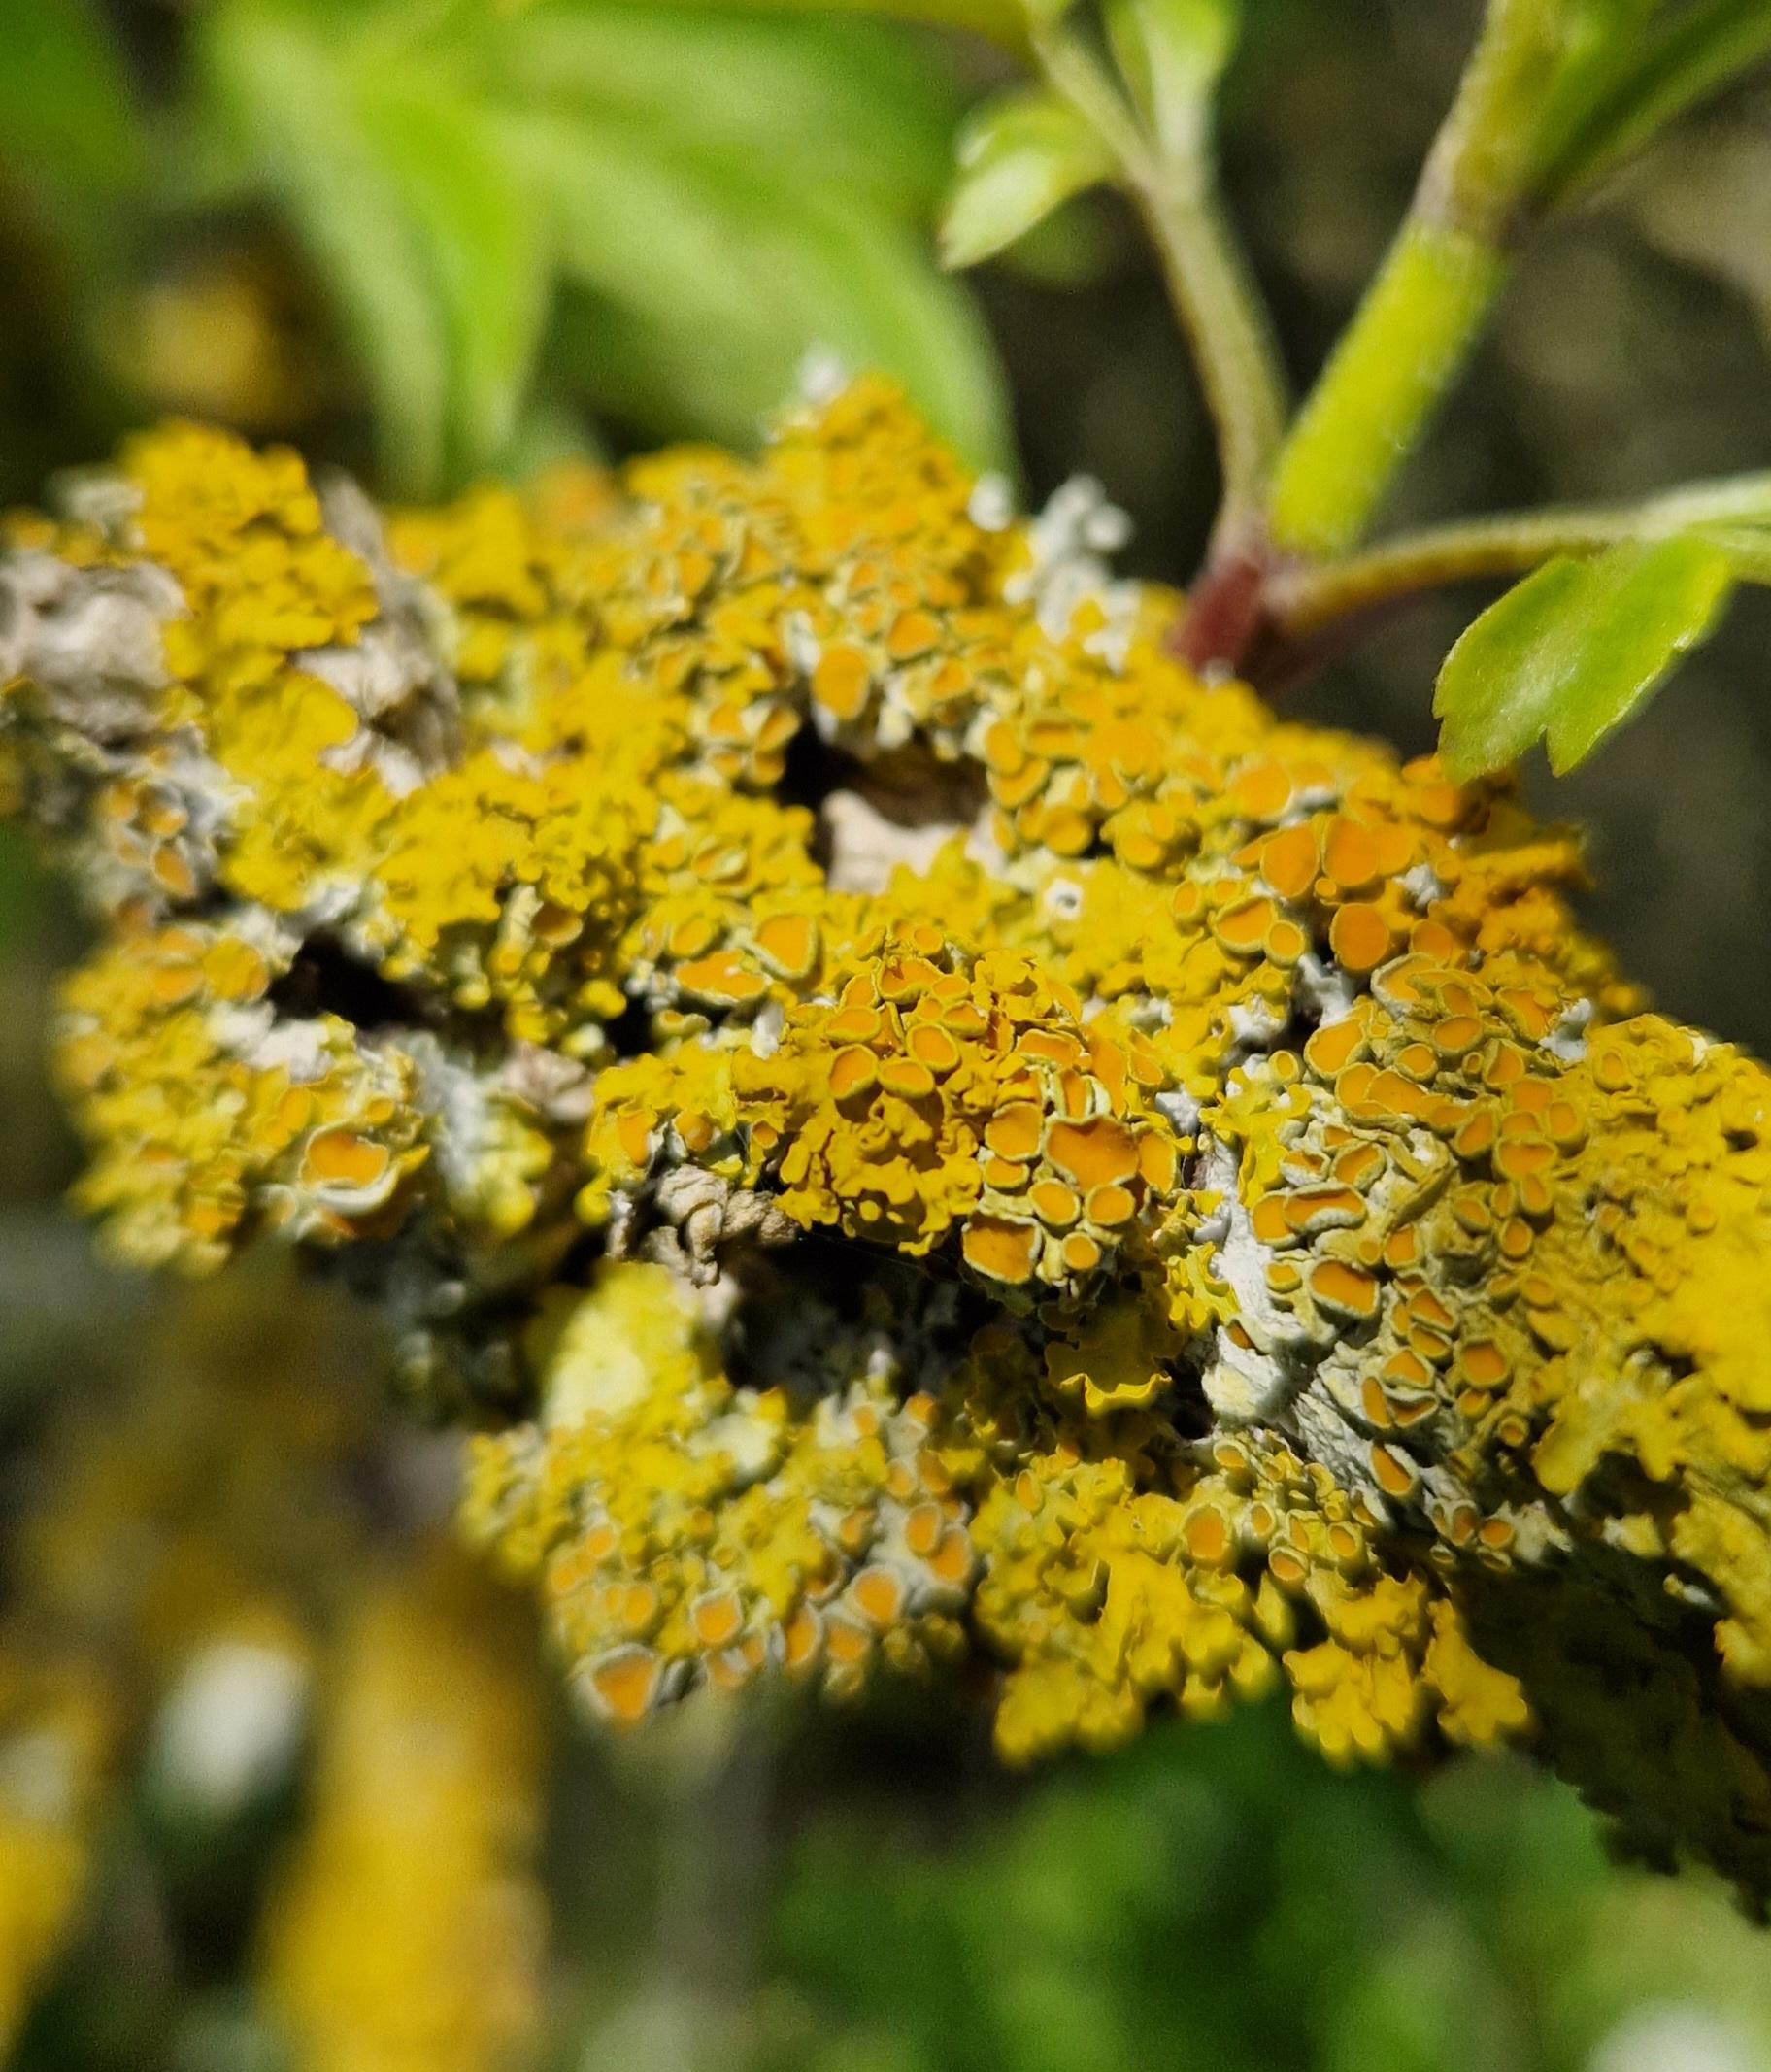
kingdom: Fungi
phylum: Ascomycota
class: Lecanoromycetes
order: Teloschistales
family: Teloschistaceae
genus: Xanthoria
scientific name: Xanthoria parietina
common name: Almindelig væggelav
